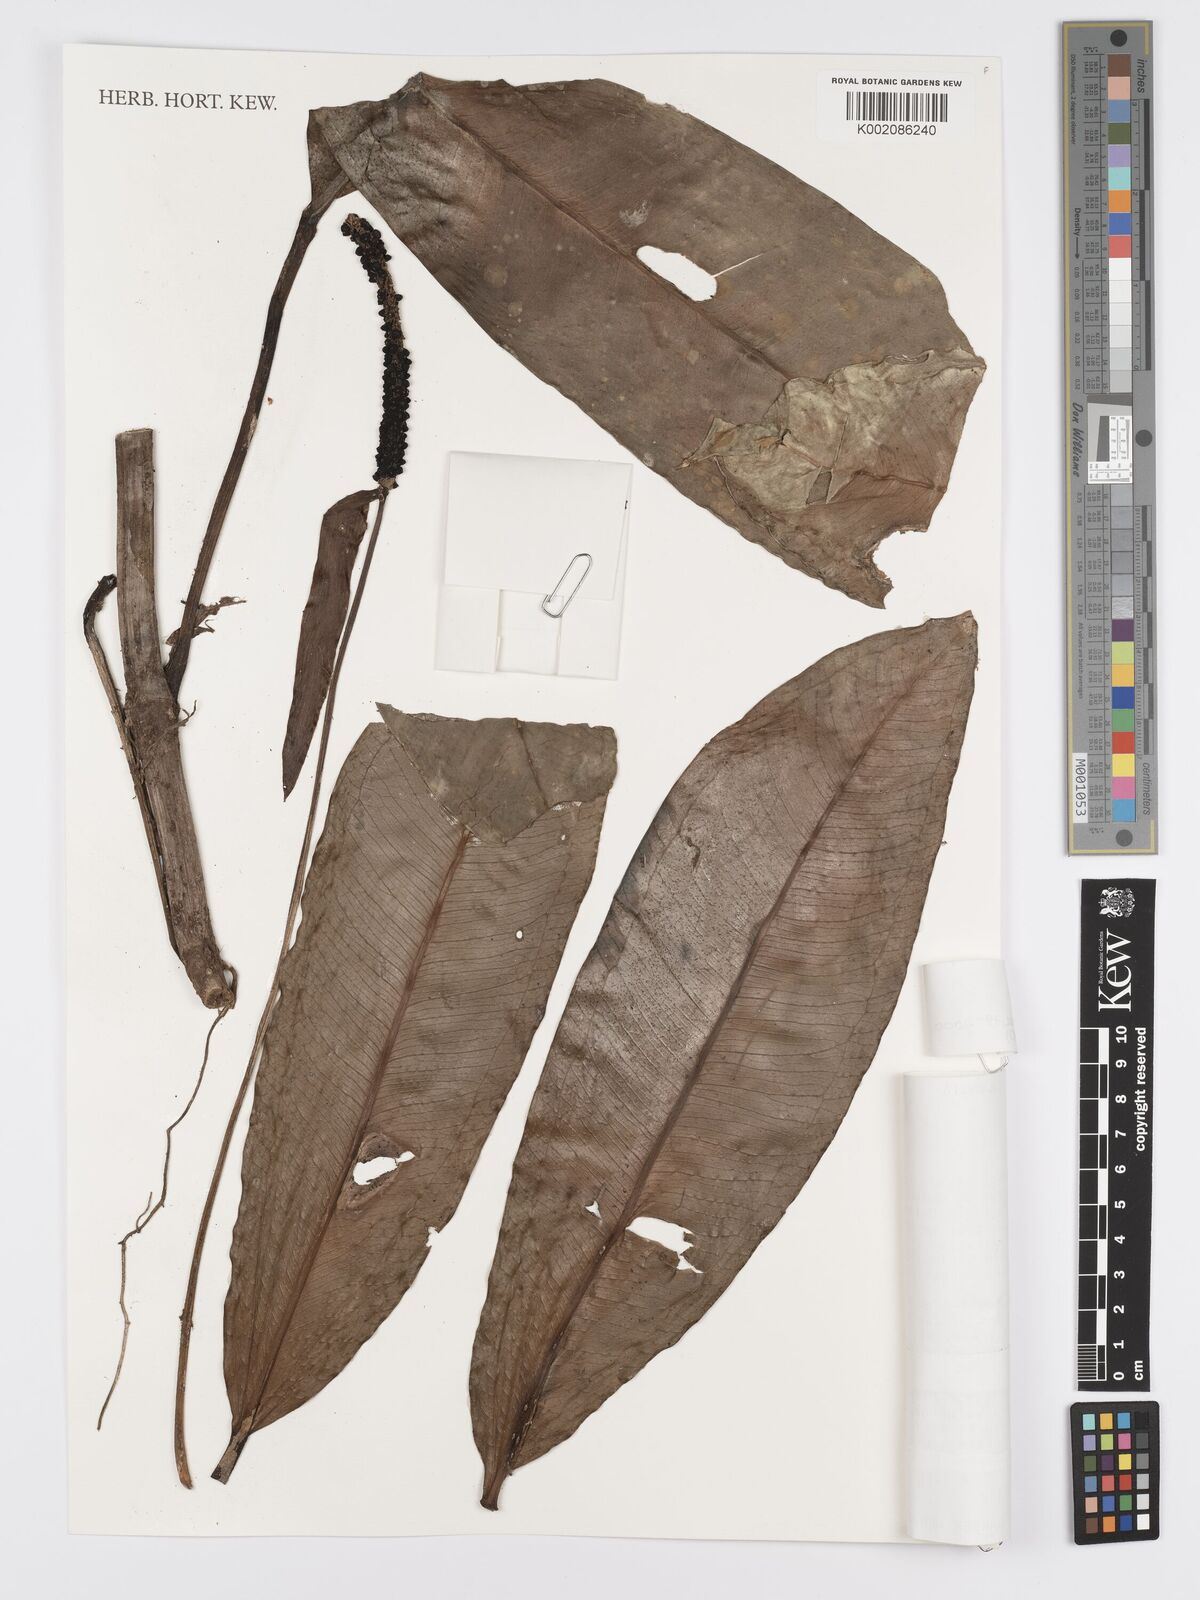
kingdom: Plantae
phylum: Tracheophyta
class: Liliopsida
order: Alismatales
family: Araceae
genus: Anthurium
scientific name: Anthurium guayaquilense
